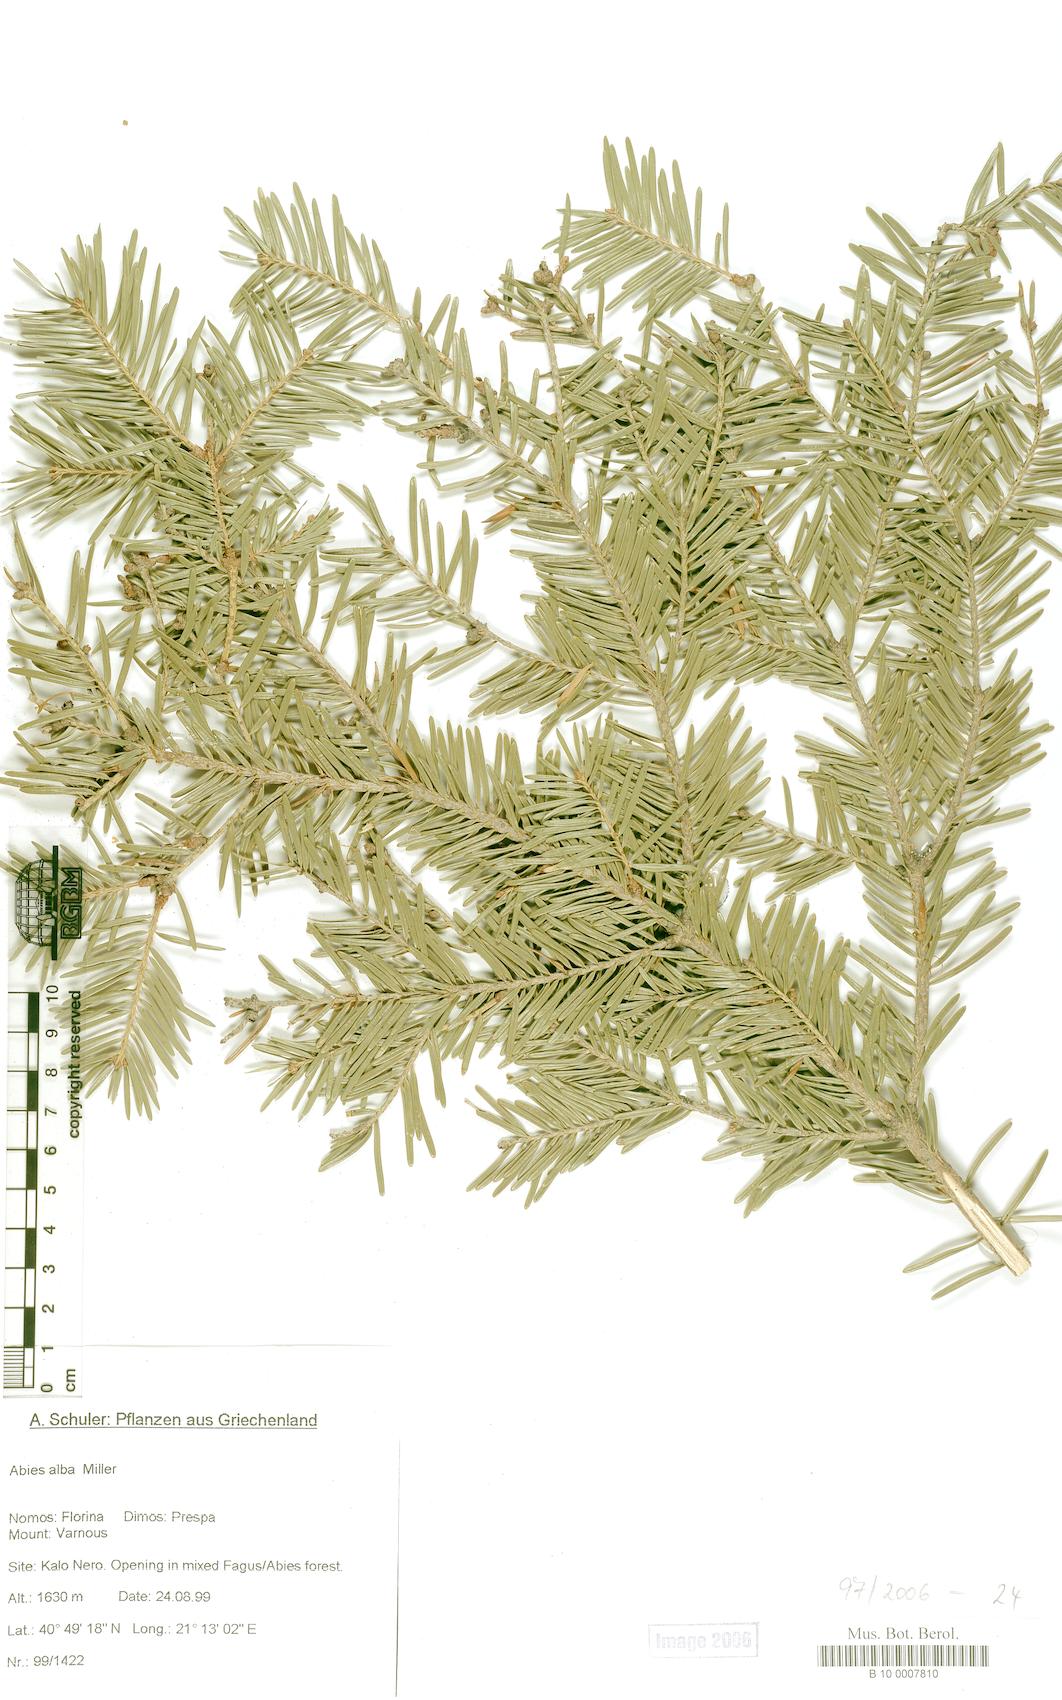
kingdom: Plantae
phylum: Tracheophyta
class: Pinopsida
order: Pinales
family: Pinaceae
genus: Abies
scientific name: Abies alba
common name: Silver fir
